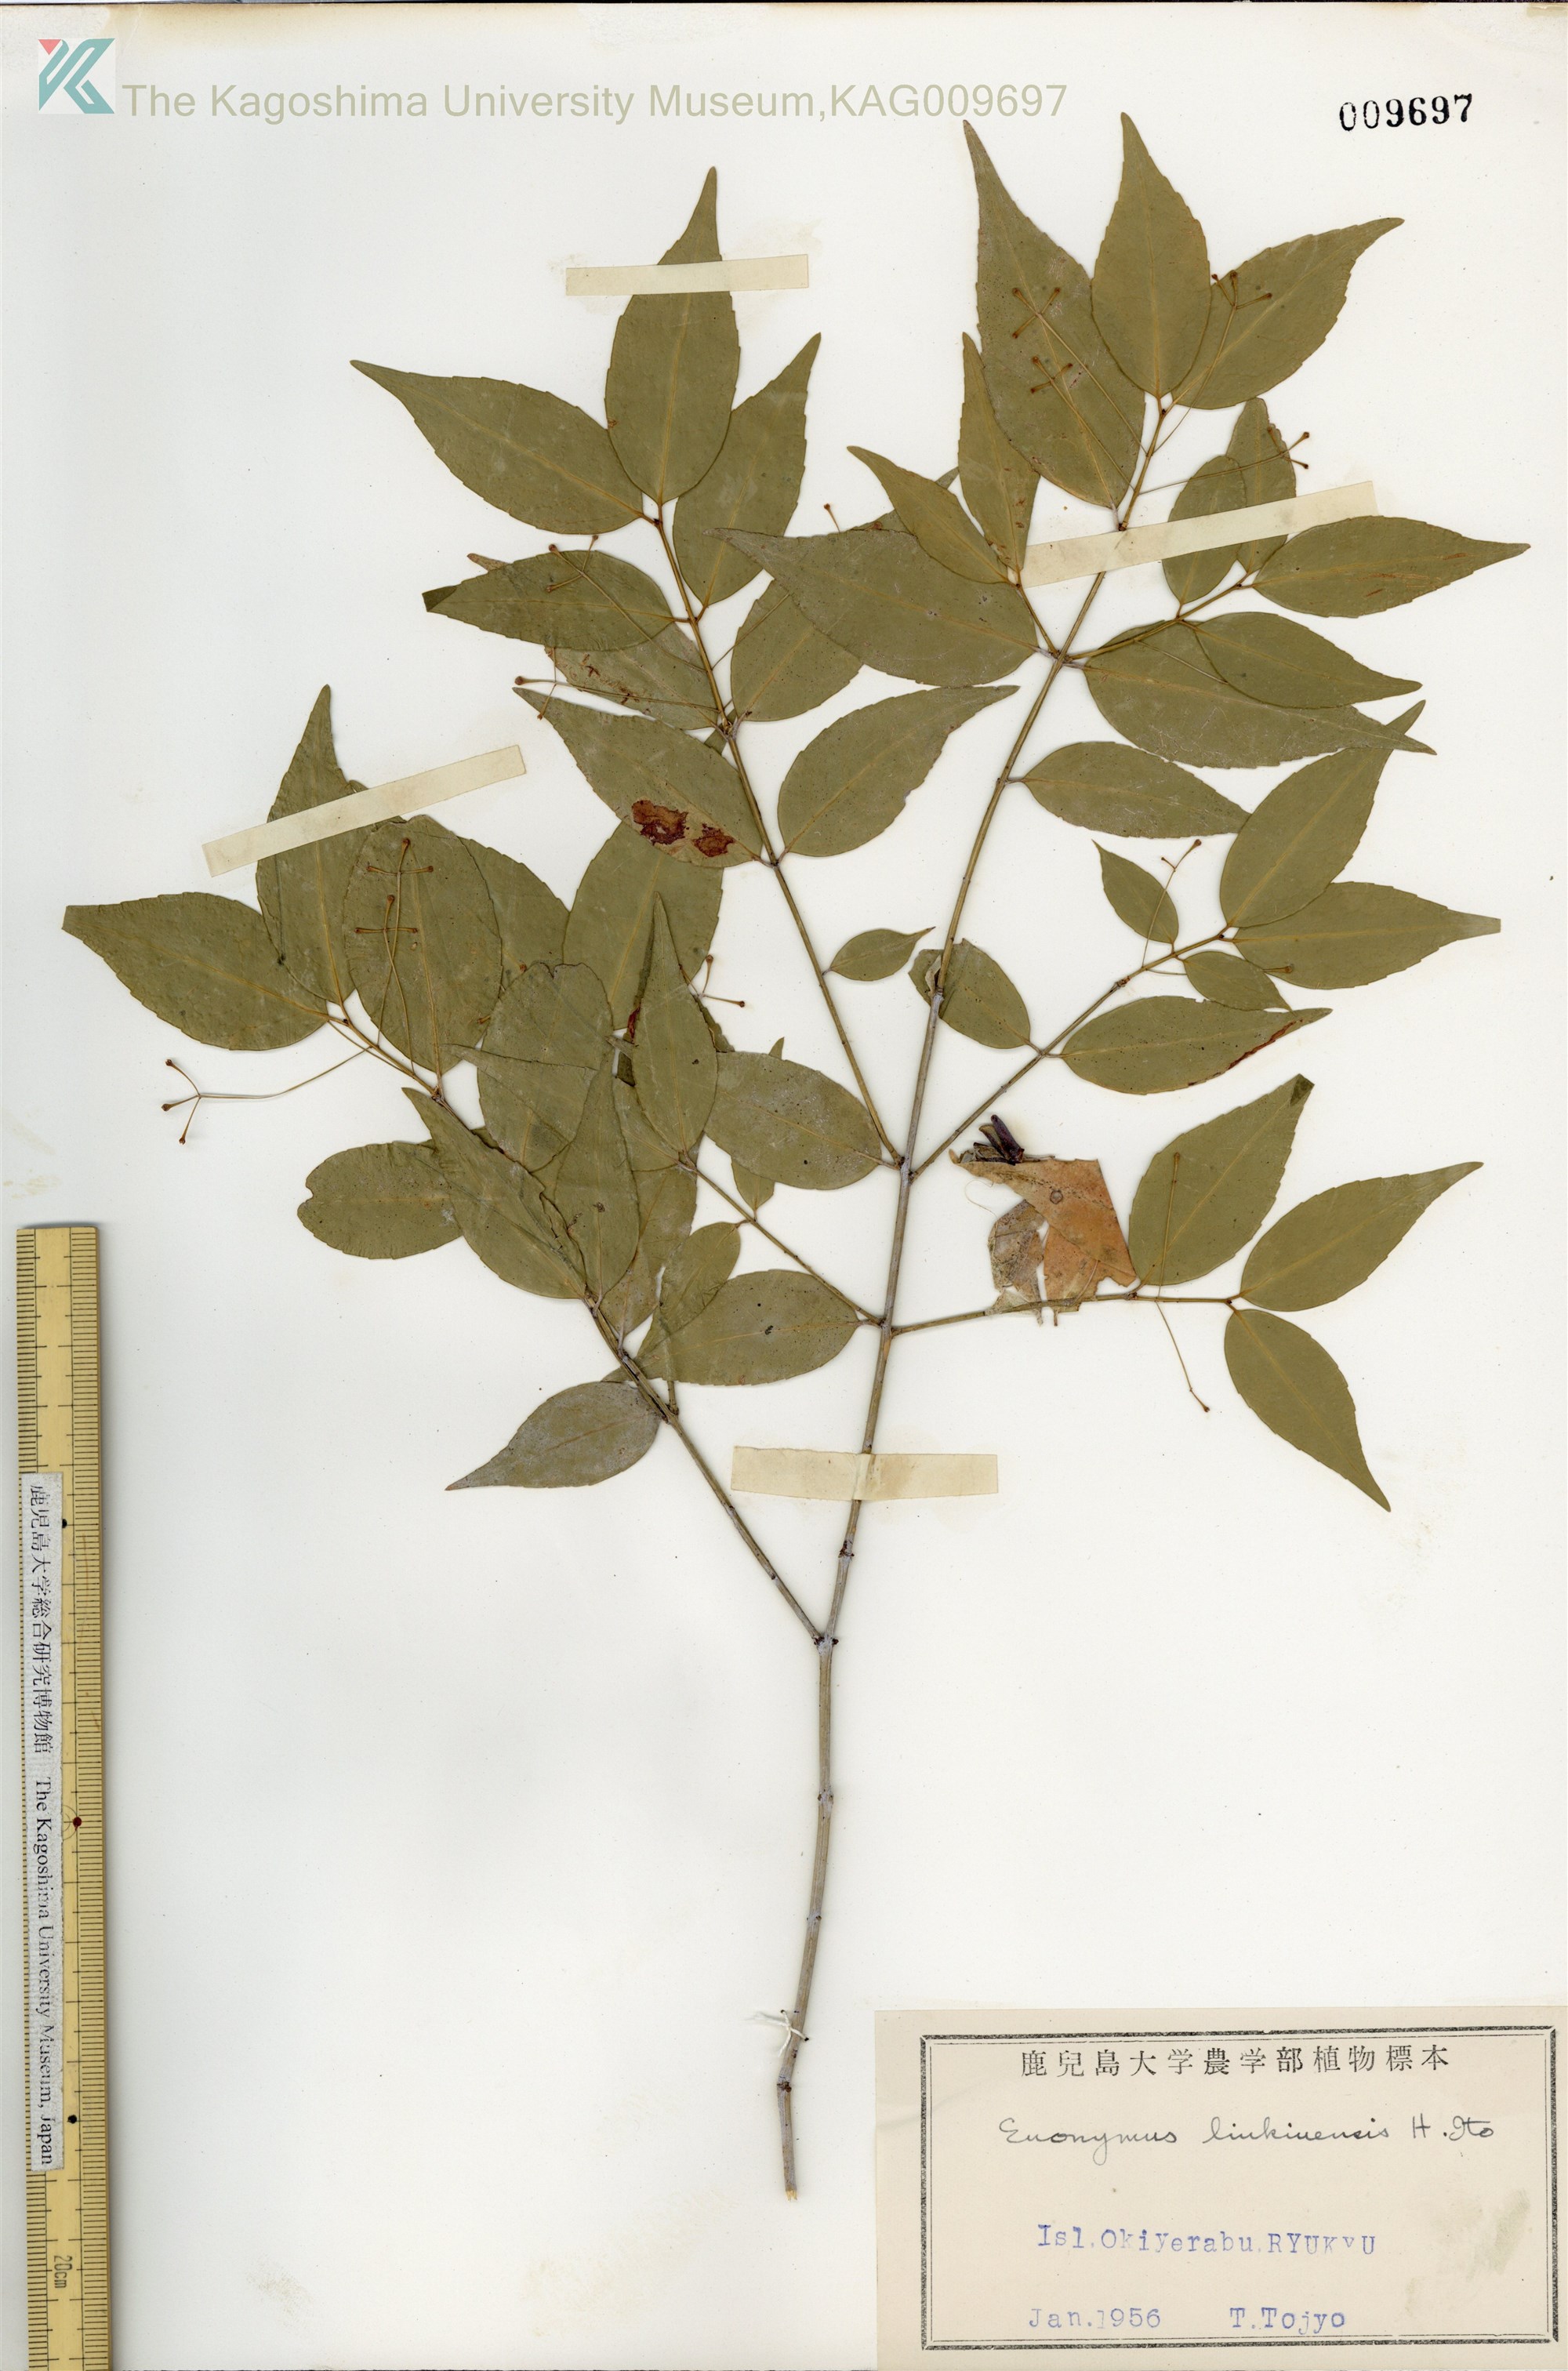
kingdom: Plantae
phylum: Tracheophyta
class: Magnoliopsida
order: Celastrales
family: Celastraceae
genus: Euonymus
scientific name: Euonymus lutchuensis
